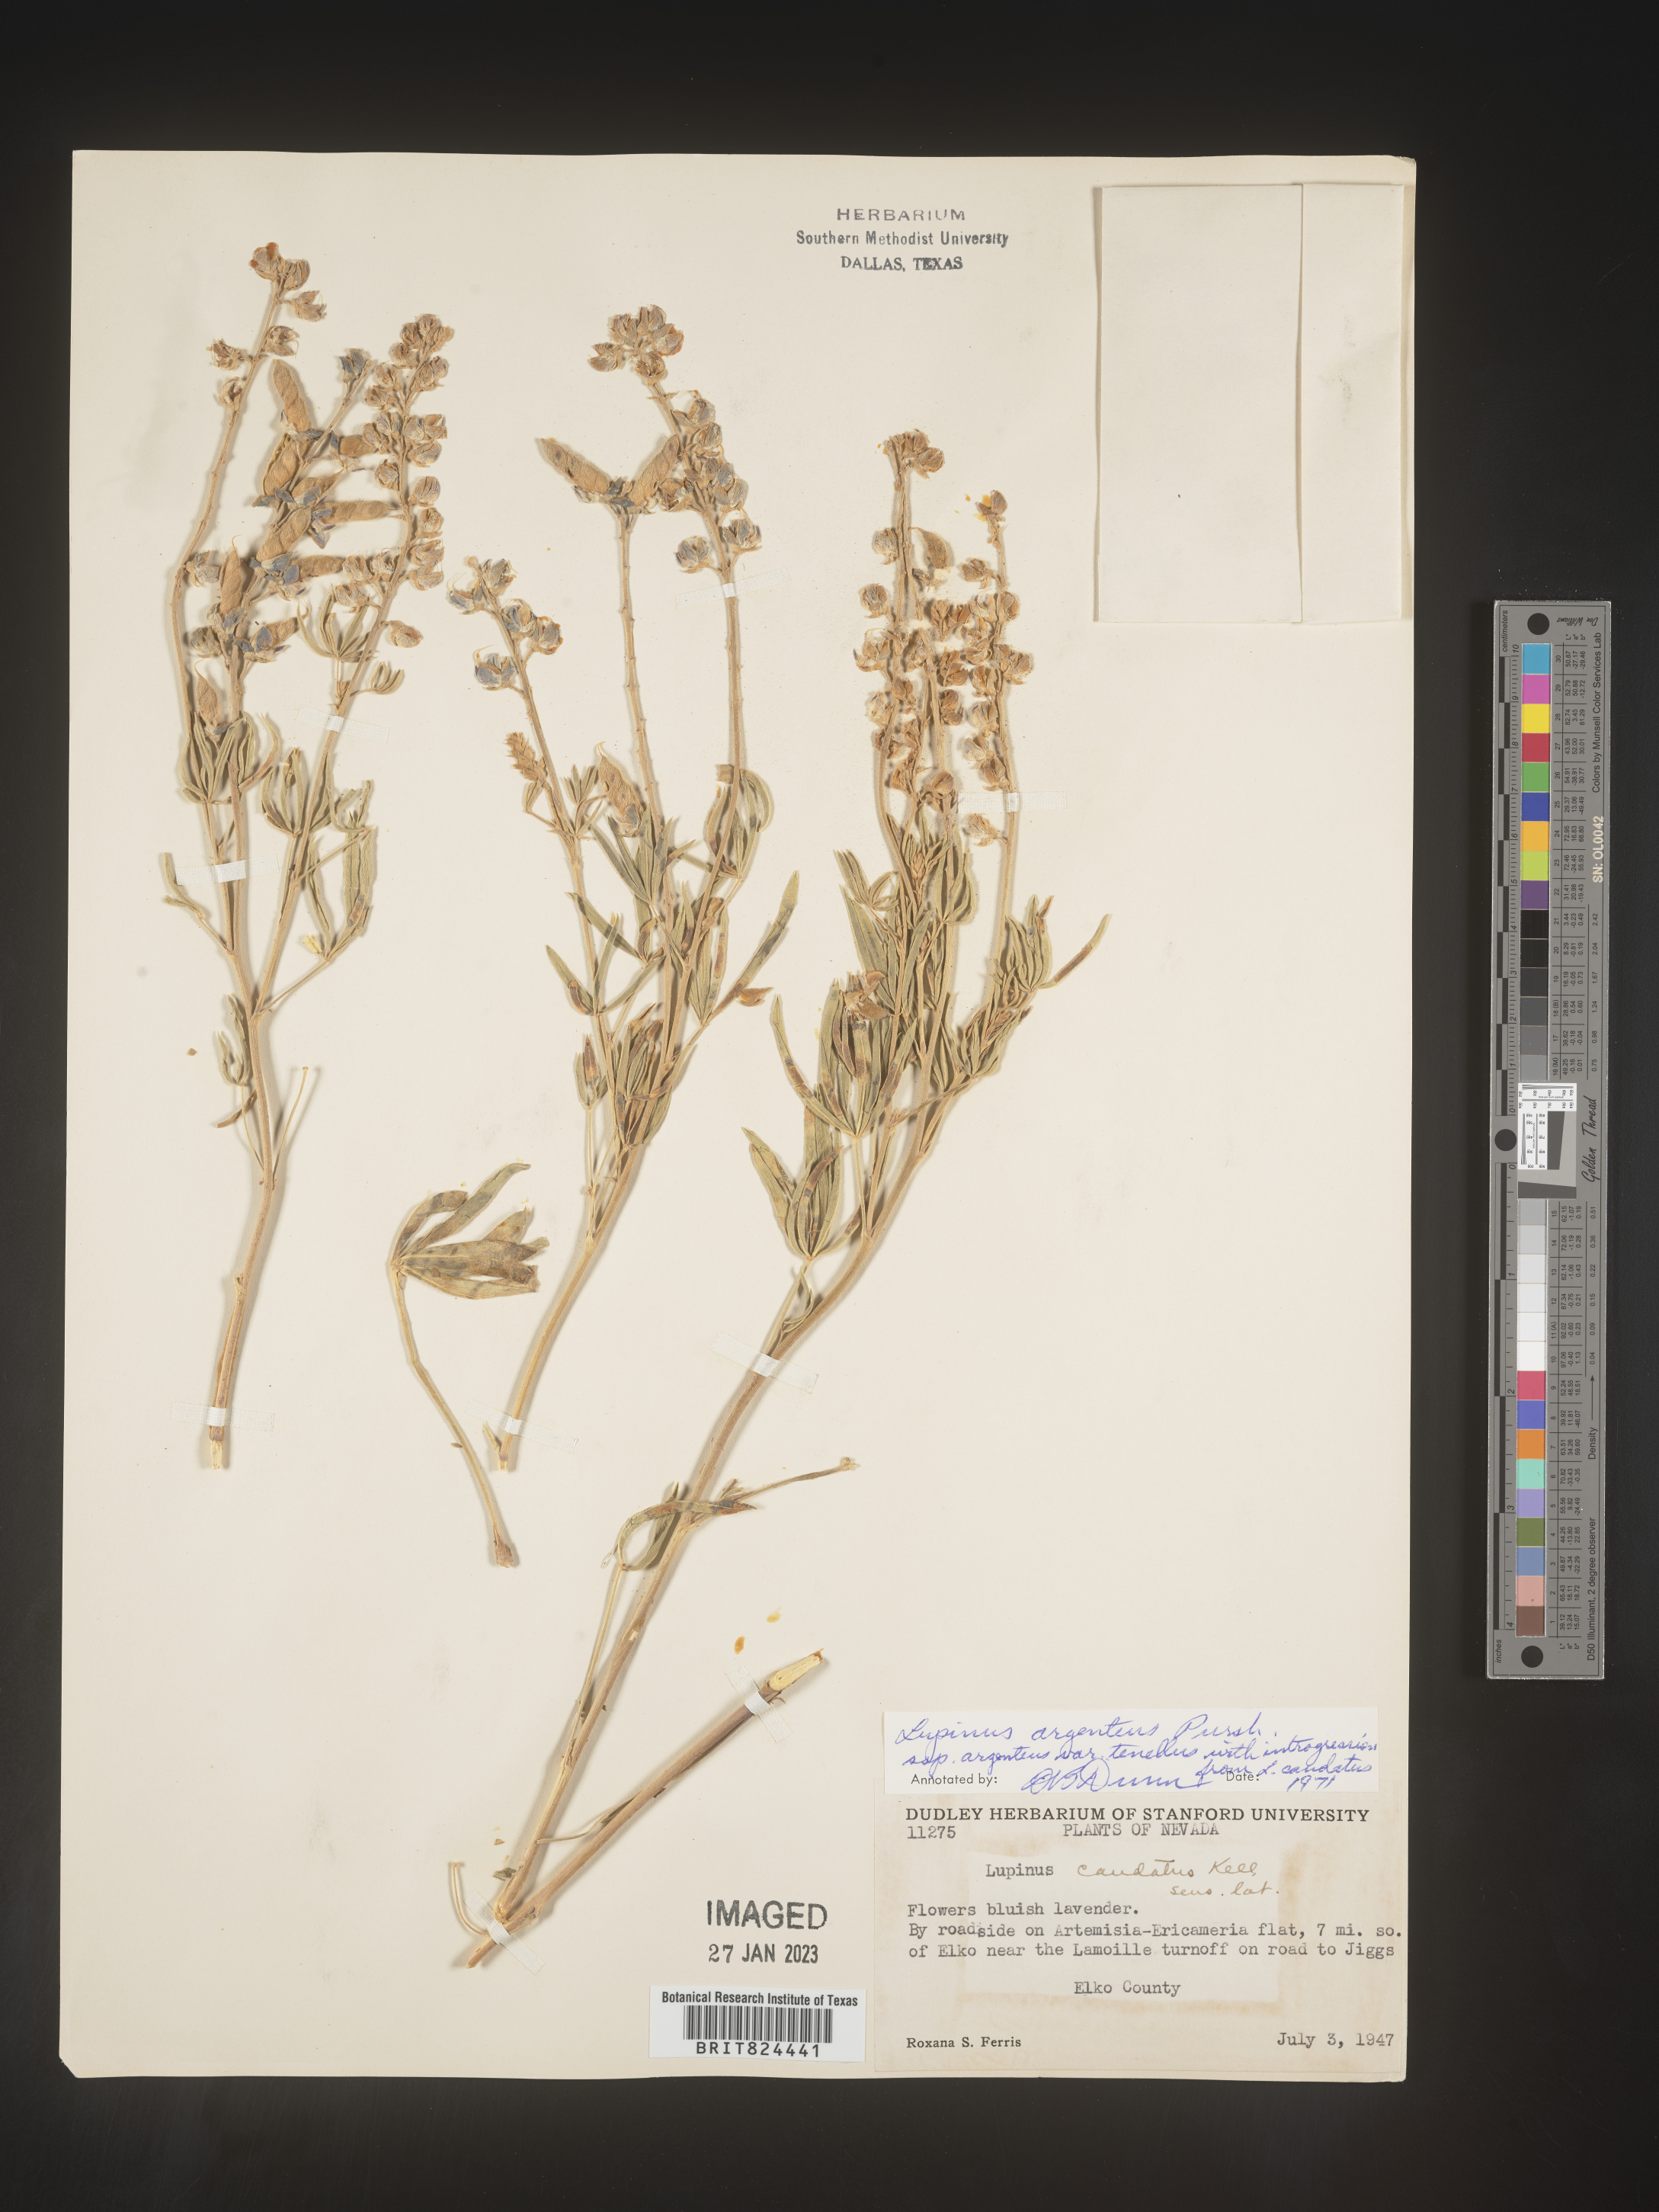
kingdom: Plantae
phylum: Tracheophyta
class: Magnoliopsida
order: Fabales
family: Fabaceae
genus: Lupinus
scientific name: Lupinus argenteus
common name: Silvery lupine
